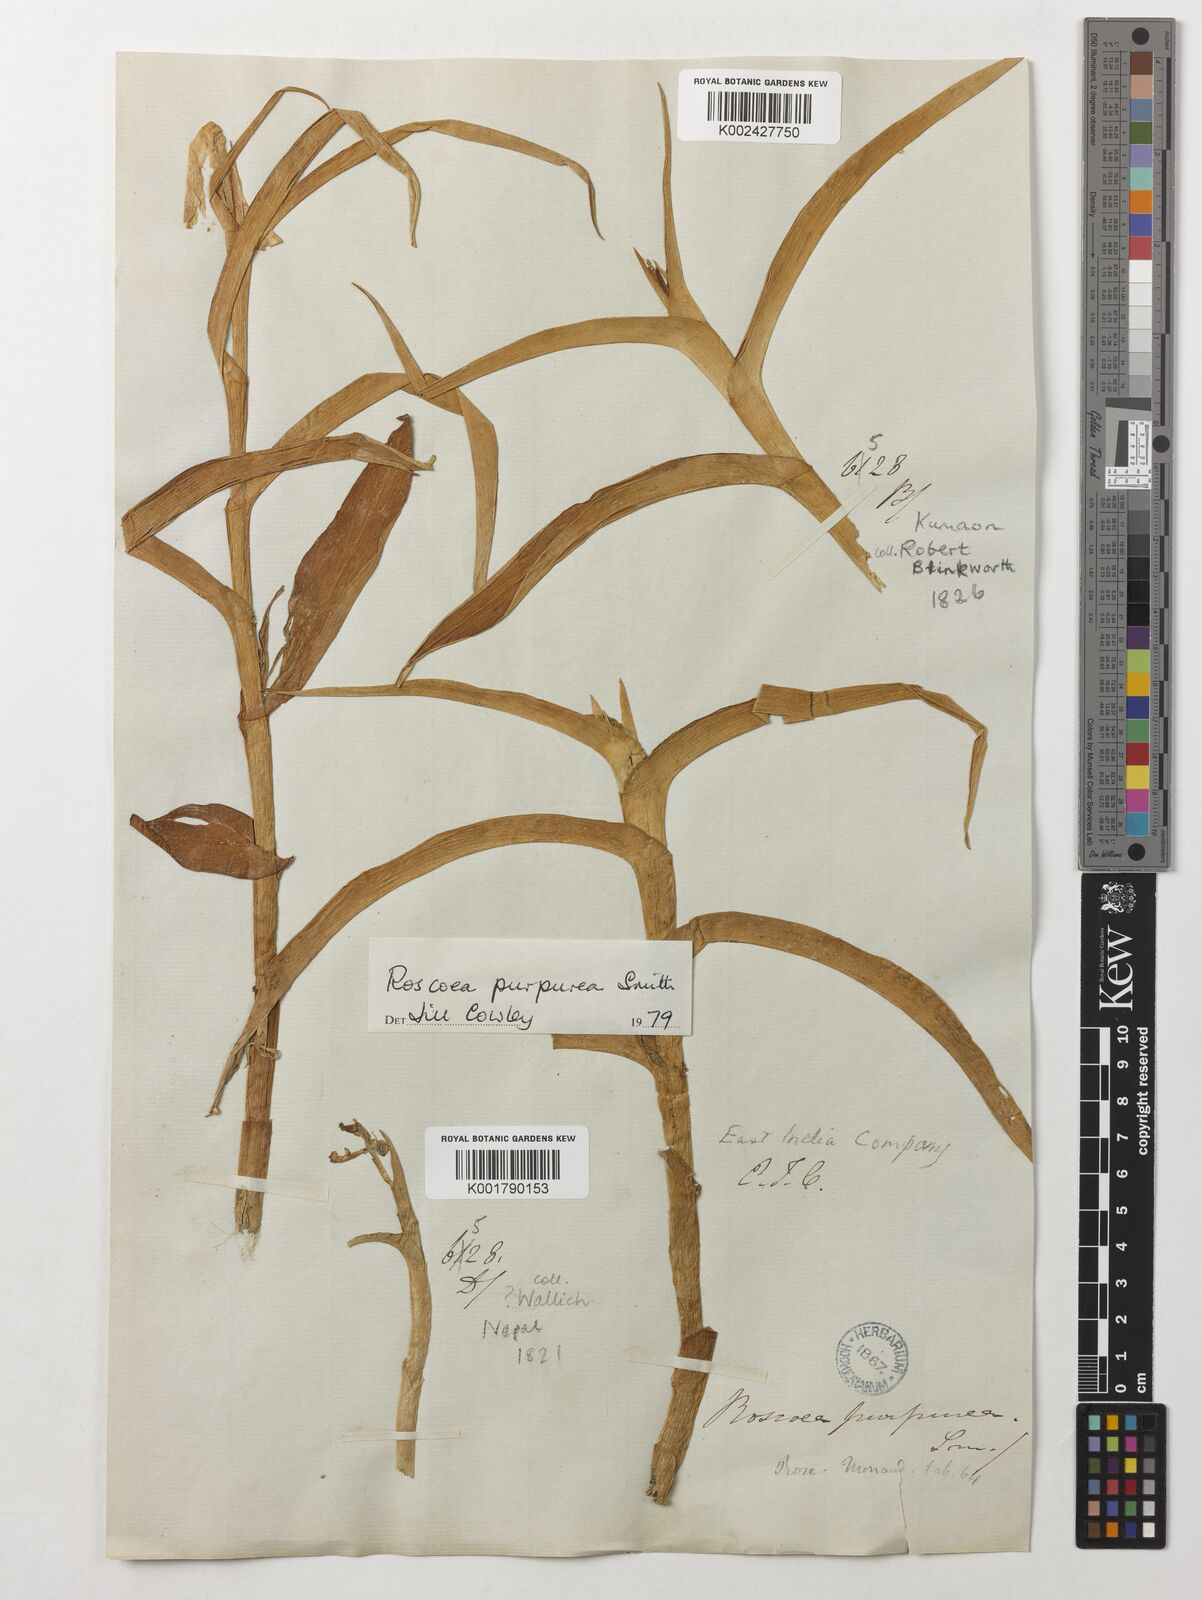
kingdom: Plantae
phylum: Tracheophyta
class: Liliopsida
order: Zingiberales
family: Zingiberaceae
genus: Roscoea
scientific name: Roscoea purpurea
